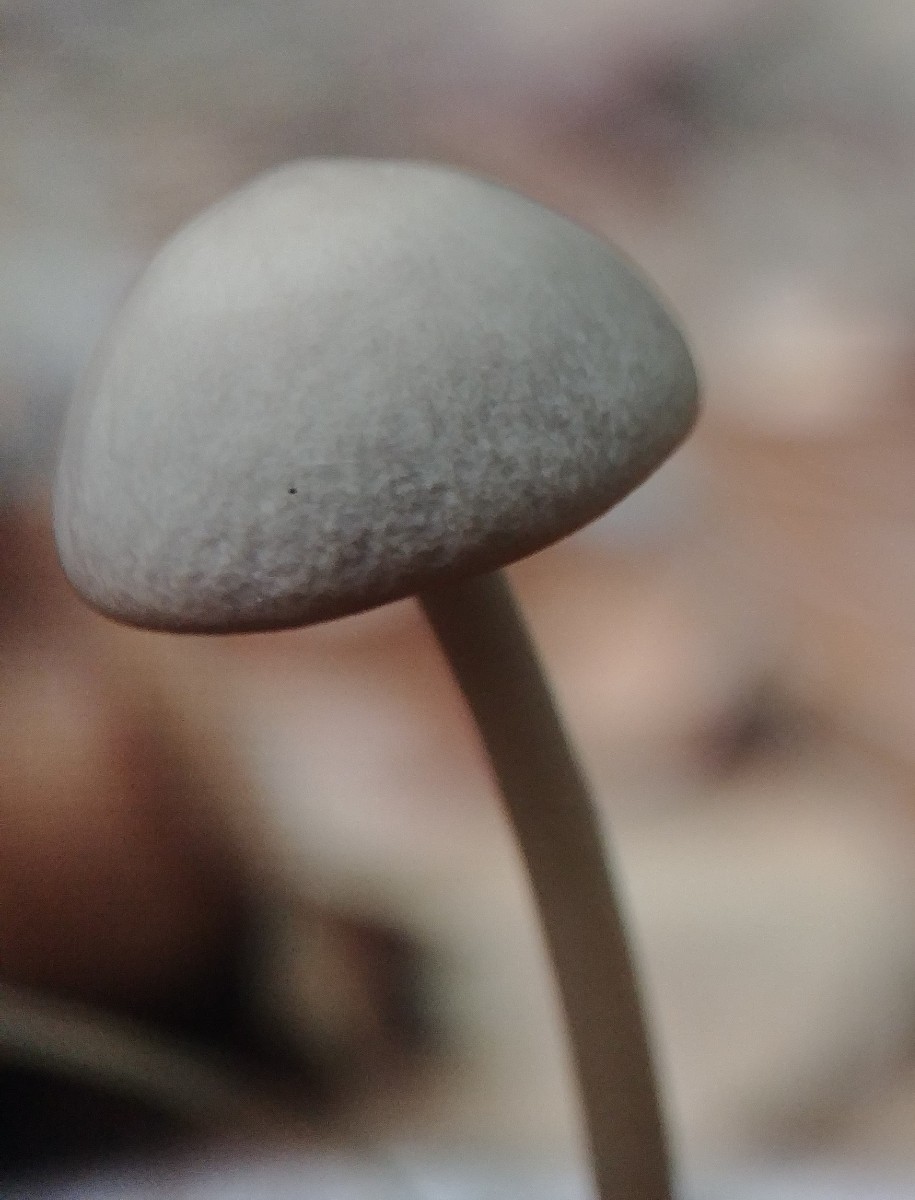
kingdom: Fungi
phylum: Basidiomycota
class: Agaricomycetes
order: Agaricales
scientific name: Agaricales
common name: champignonordenen
